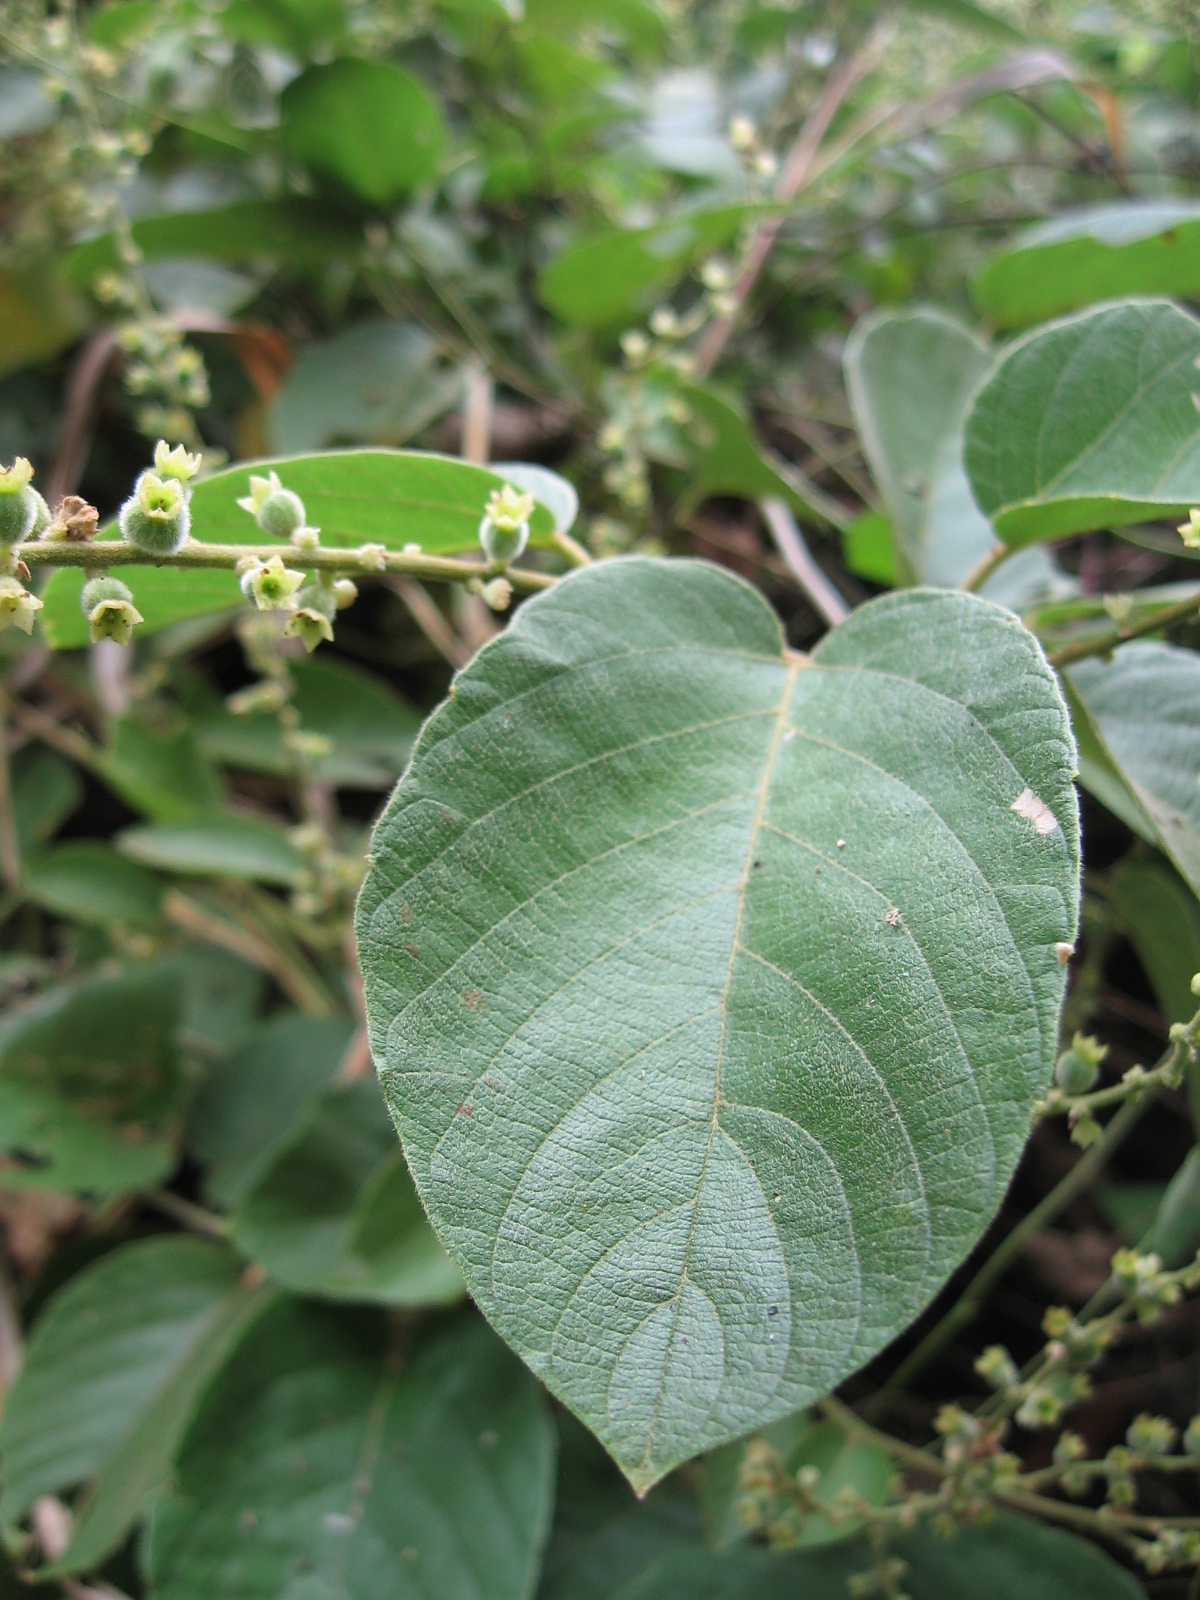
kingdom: Plantae
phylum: Tracheophyta
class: Magnoliopsida
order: Rosales
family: Rhamnaceae
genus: Gouania
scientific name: Gouania pubidisca
